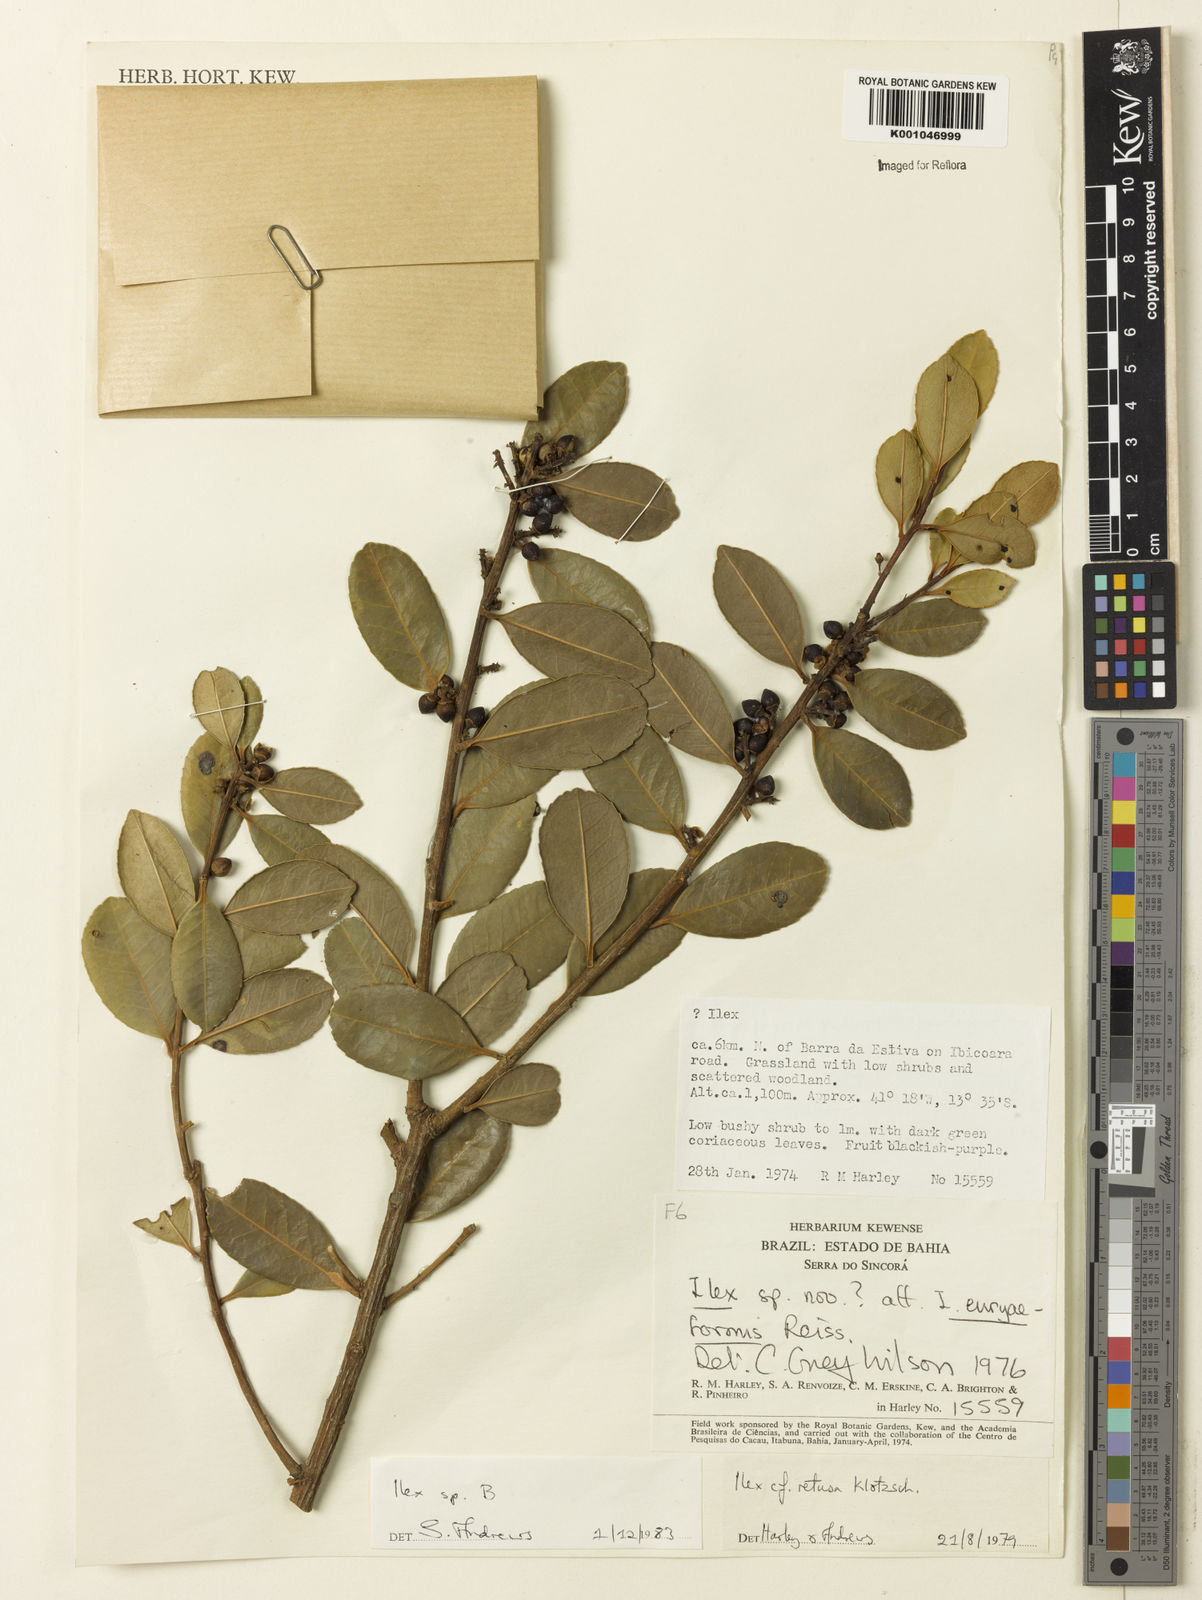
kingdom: Plantae
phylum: Tracheophyta
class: Magnoliopsida
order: Aquifoliales
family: Aquifoliaceae
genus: Ilex
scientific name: Ilex
